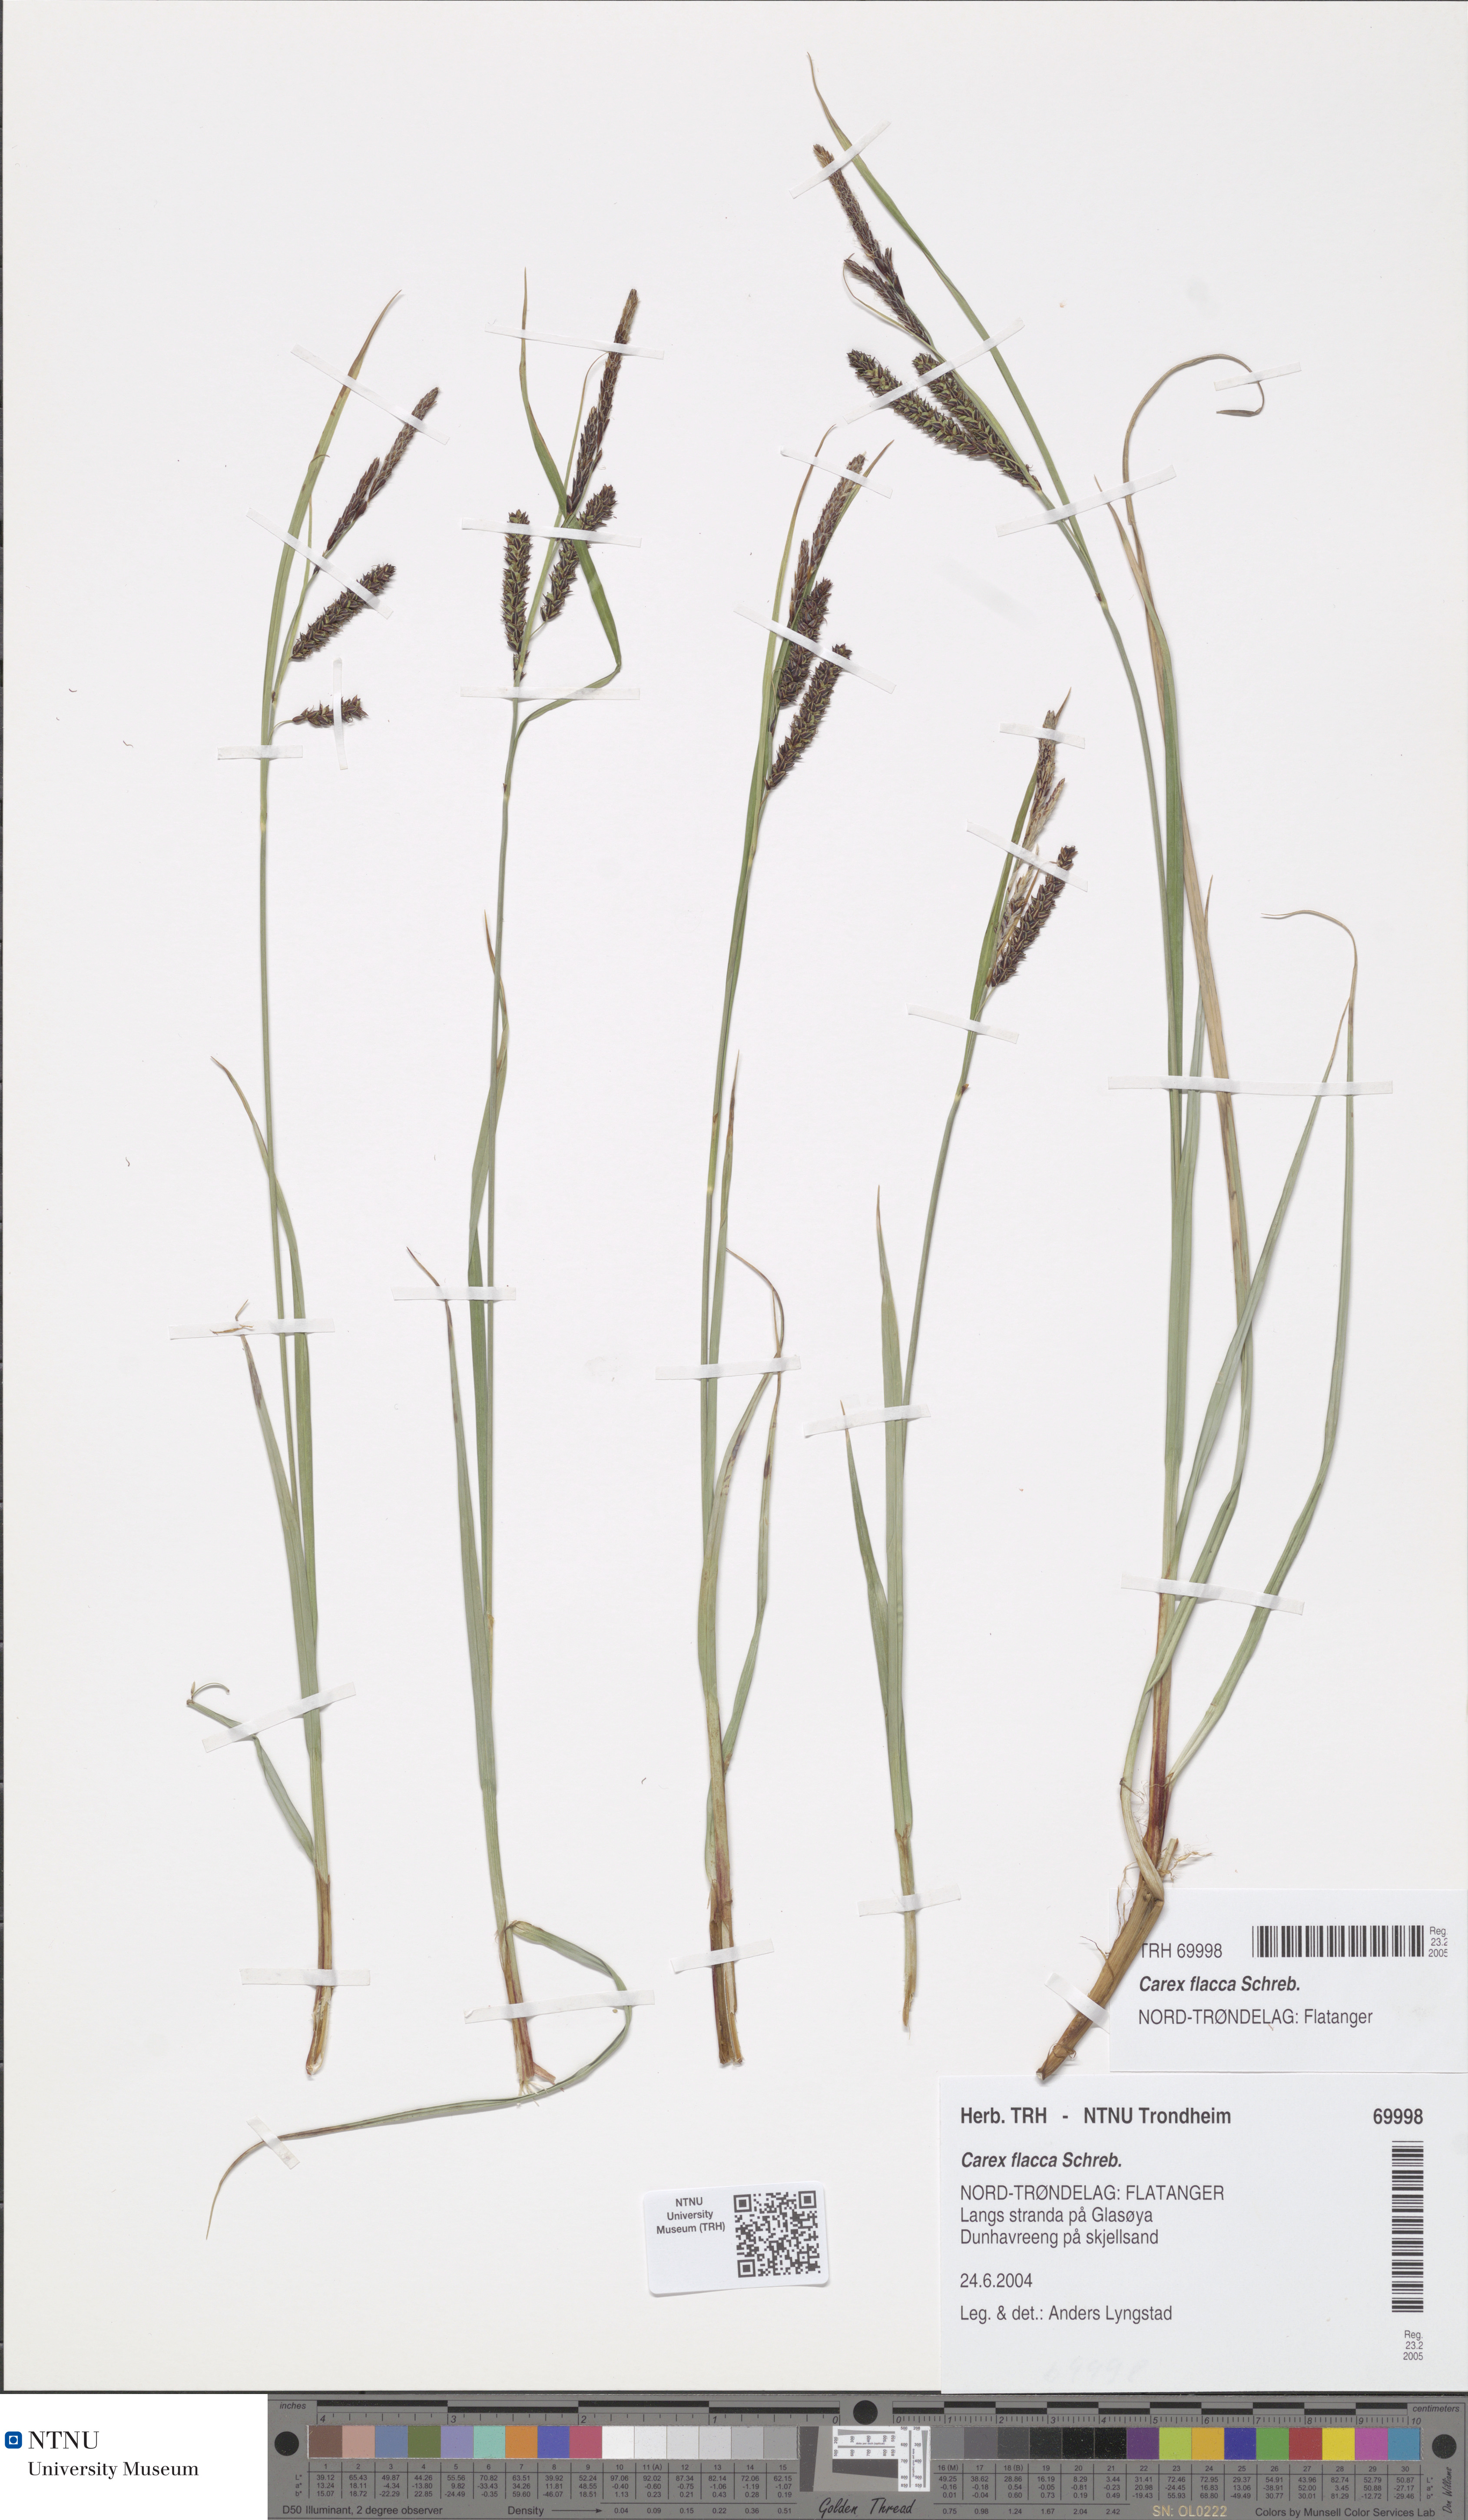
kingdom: Plantae
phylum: Tracheophyta
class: Liliopsida
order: Poales
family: Cyperaceae
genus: Carex
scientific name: Carex flacca
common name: Glaucous sedge
